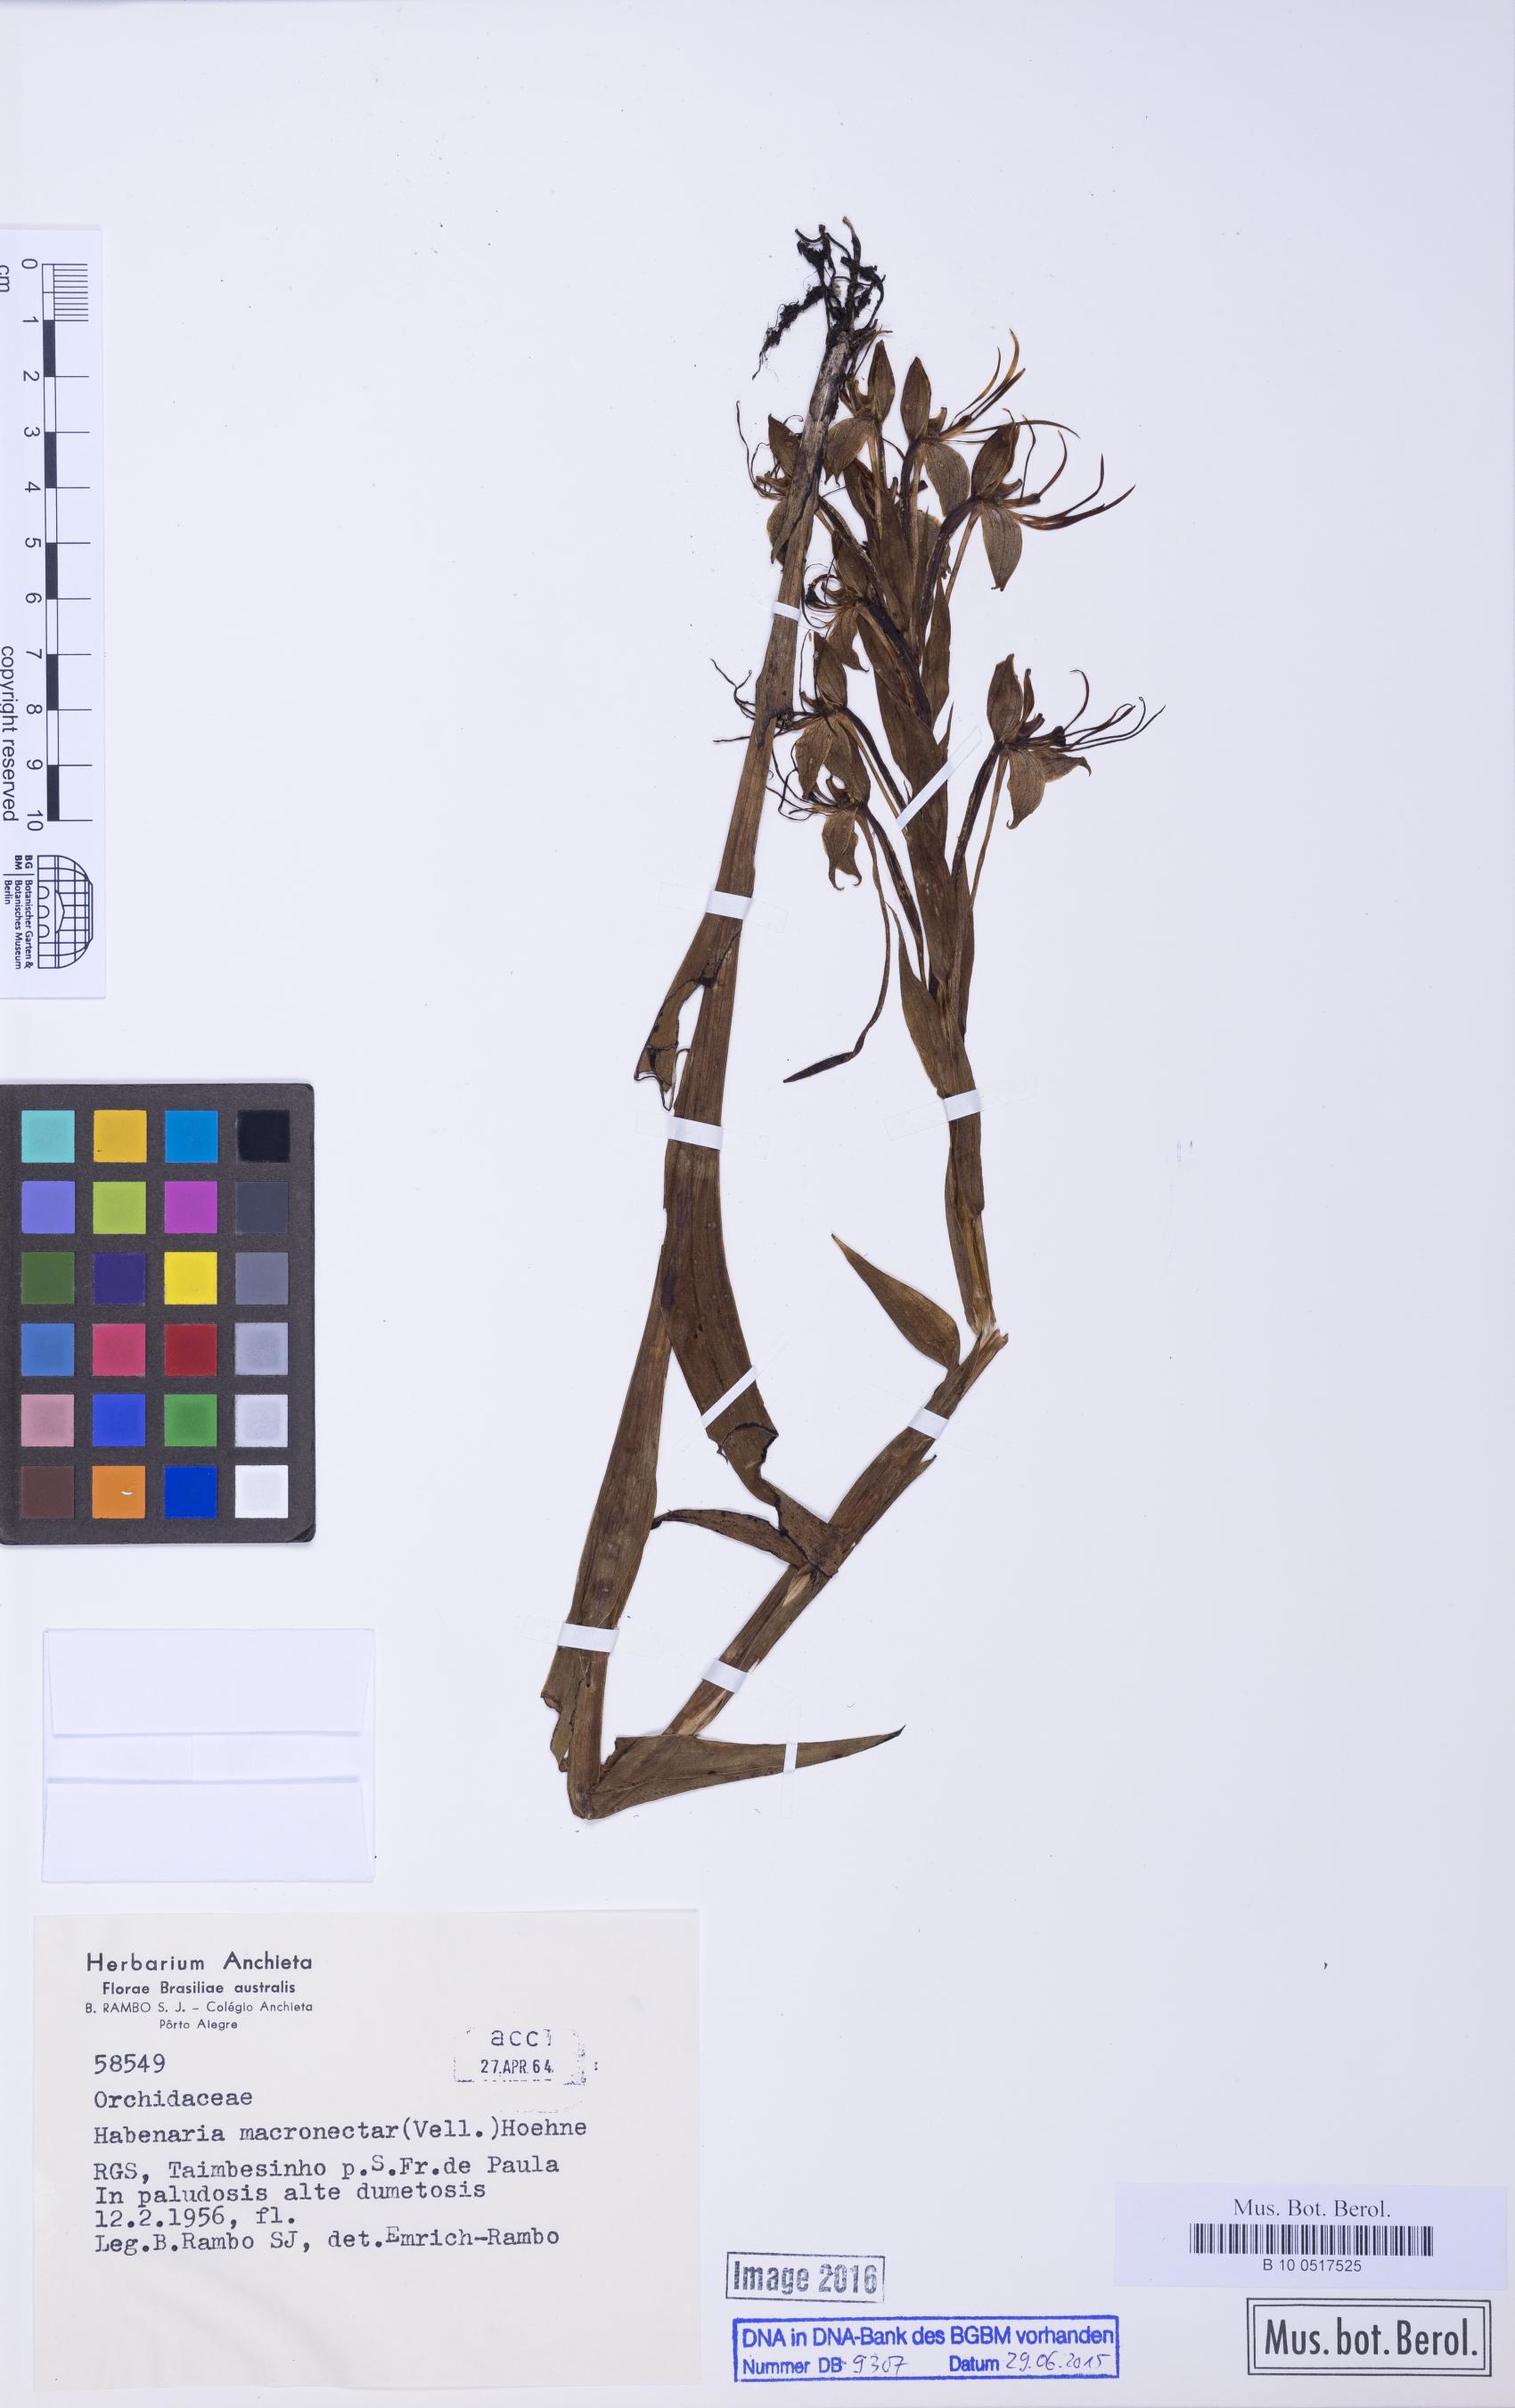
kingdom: Plantae
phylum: Tracheophyta
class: Liliopsida
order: Asparagales
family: Orchidaceae
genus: Habenaria
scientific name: Habenaria macronectar
